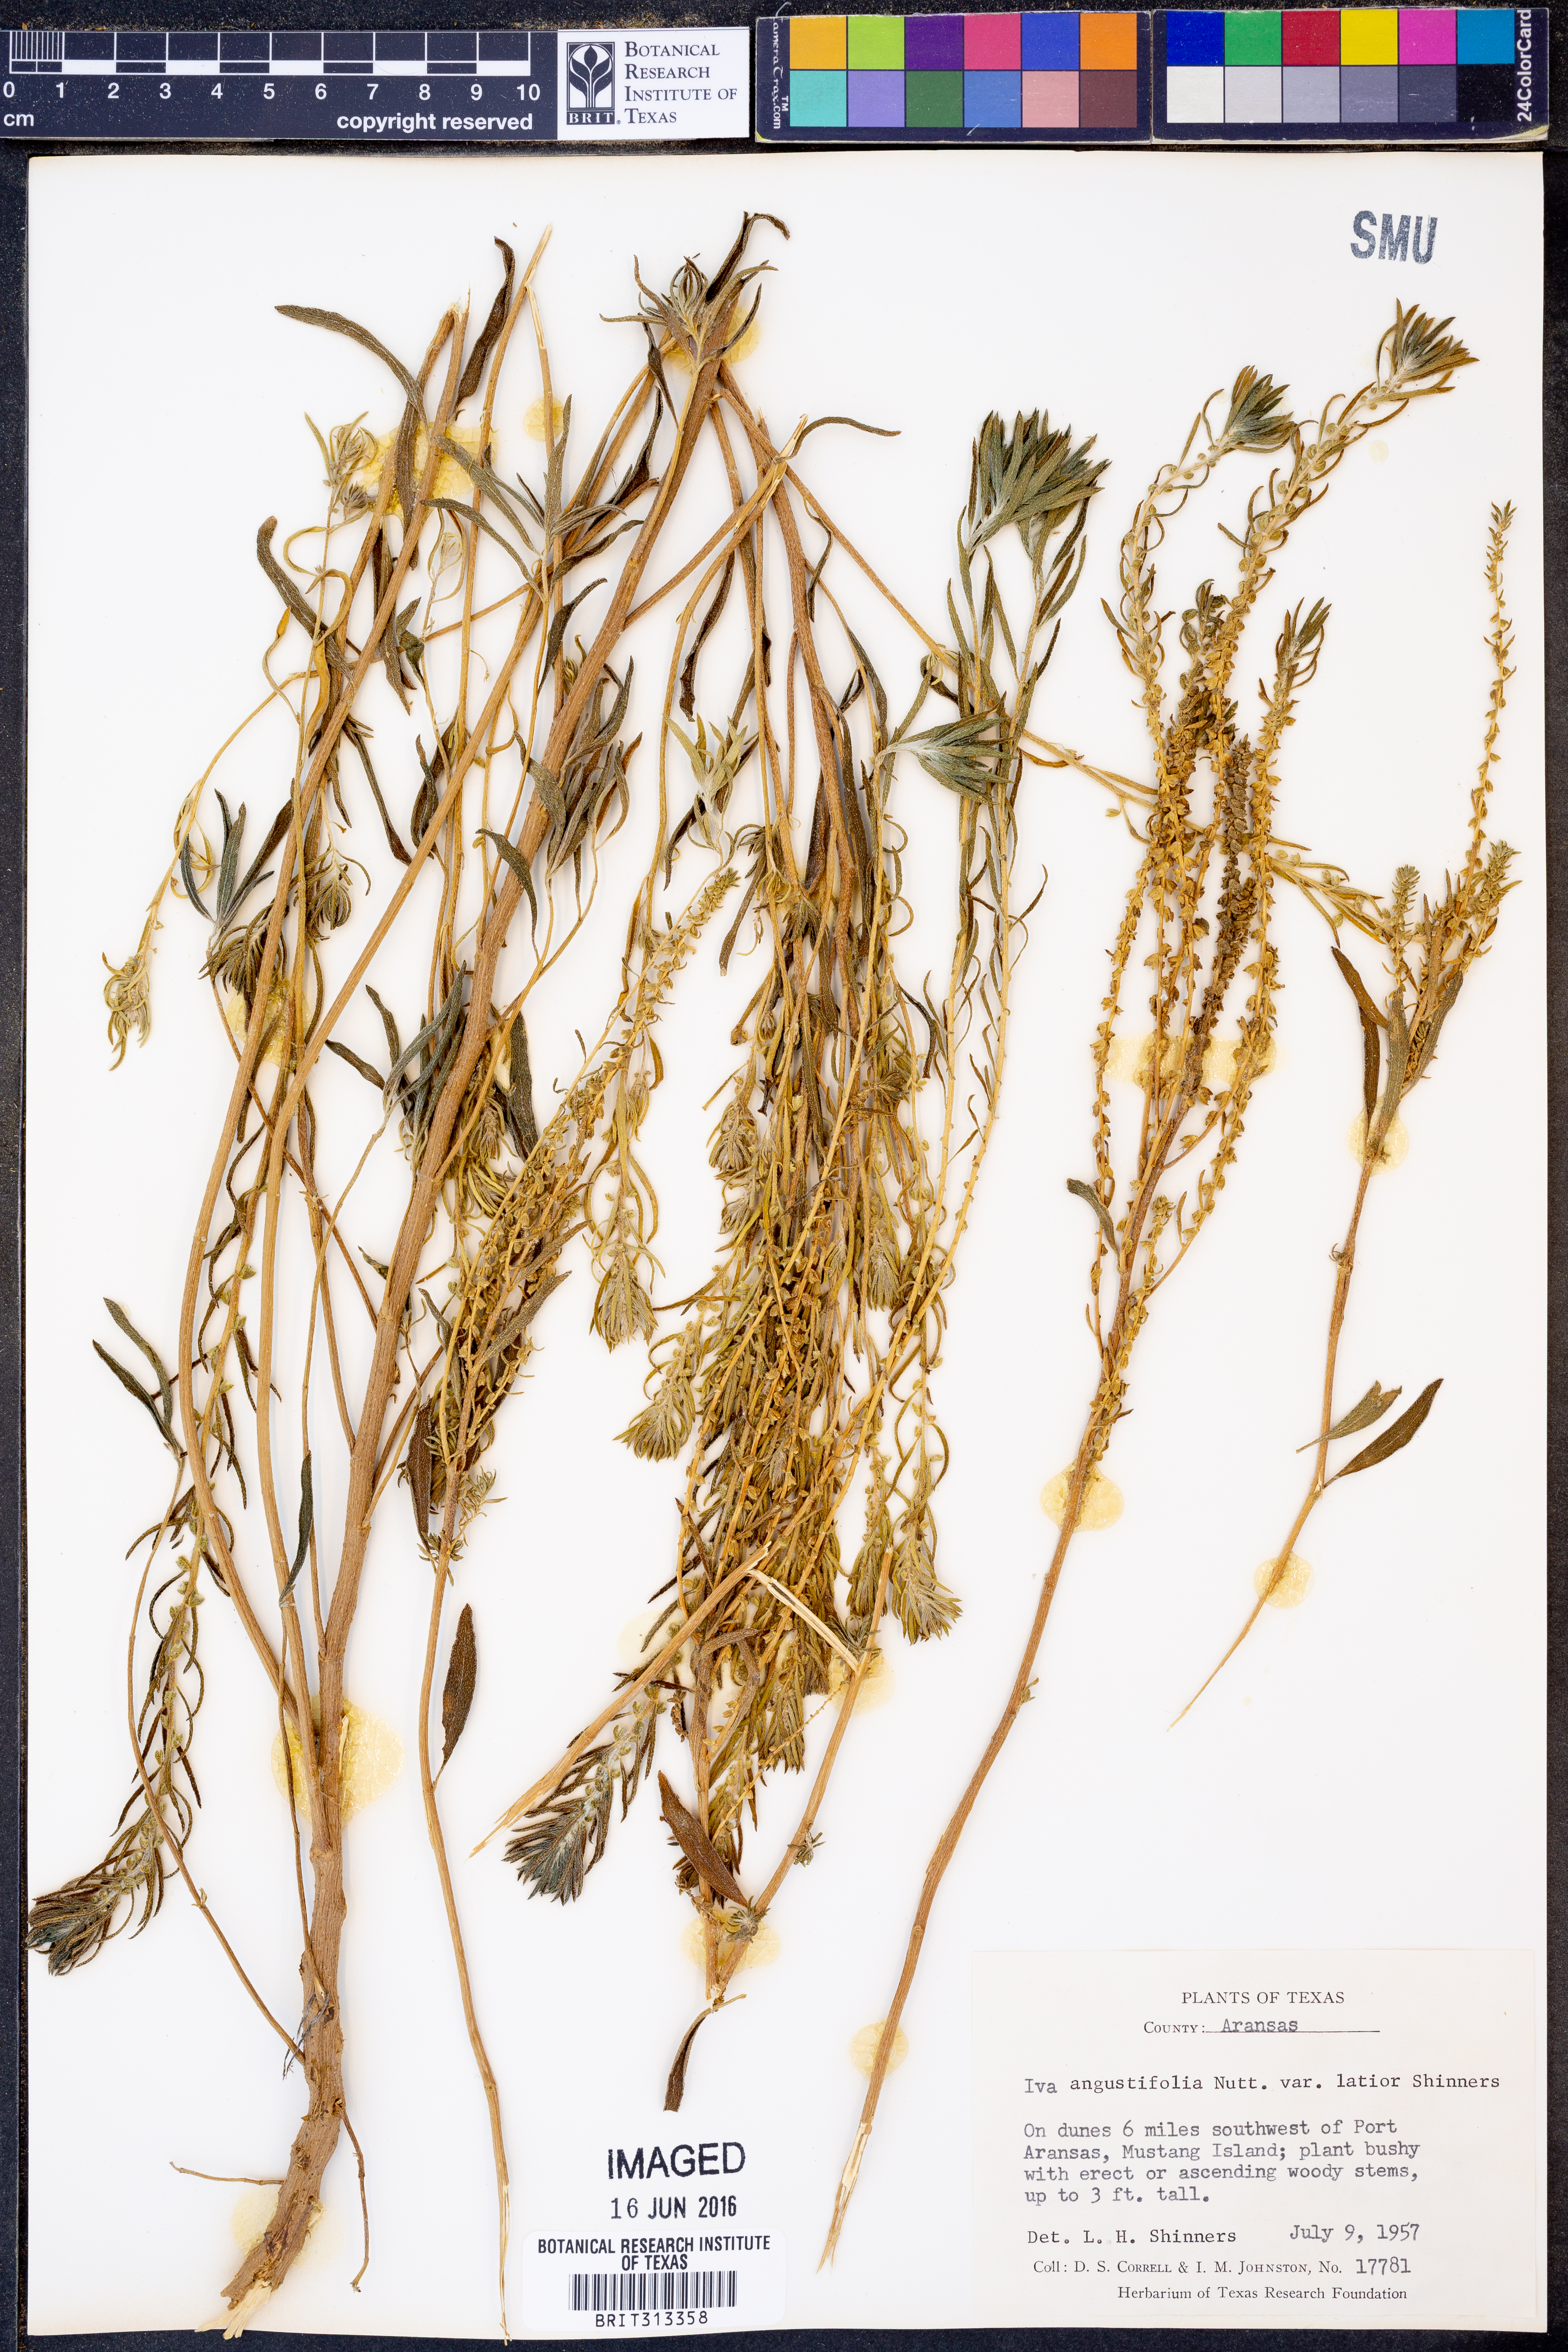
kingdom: Plantae
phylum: Tracheophyta
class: Magnoliopsida
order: Asterales
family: Asteraceae
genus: Iva
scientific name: Iva texensis
